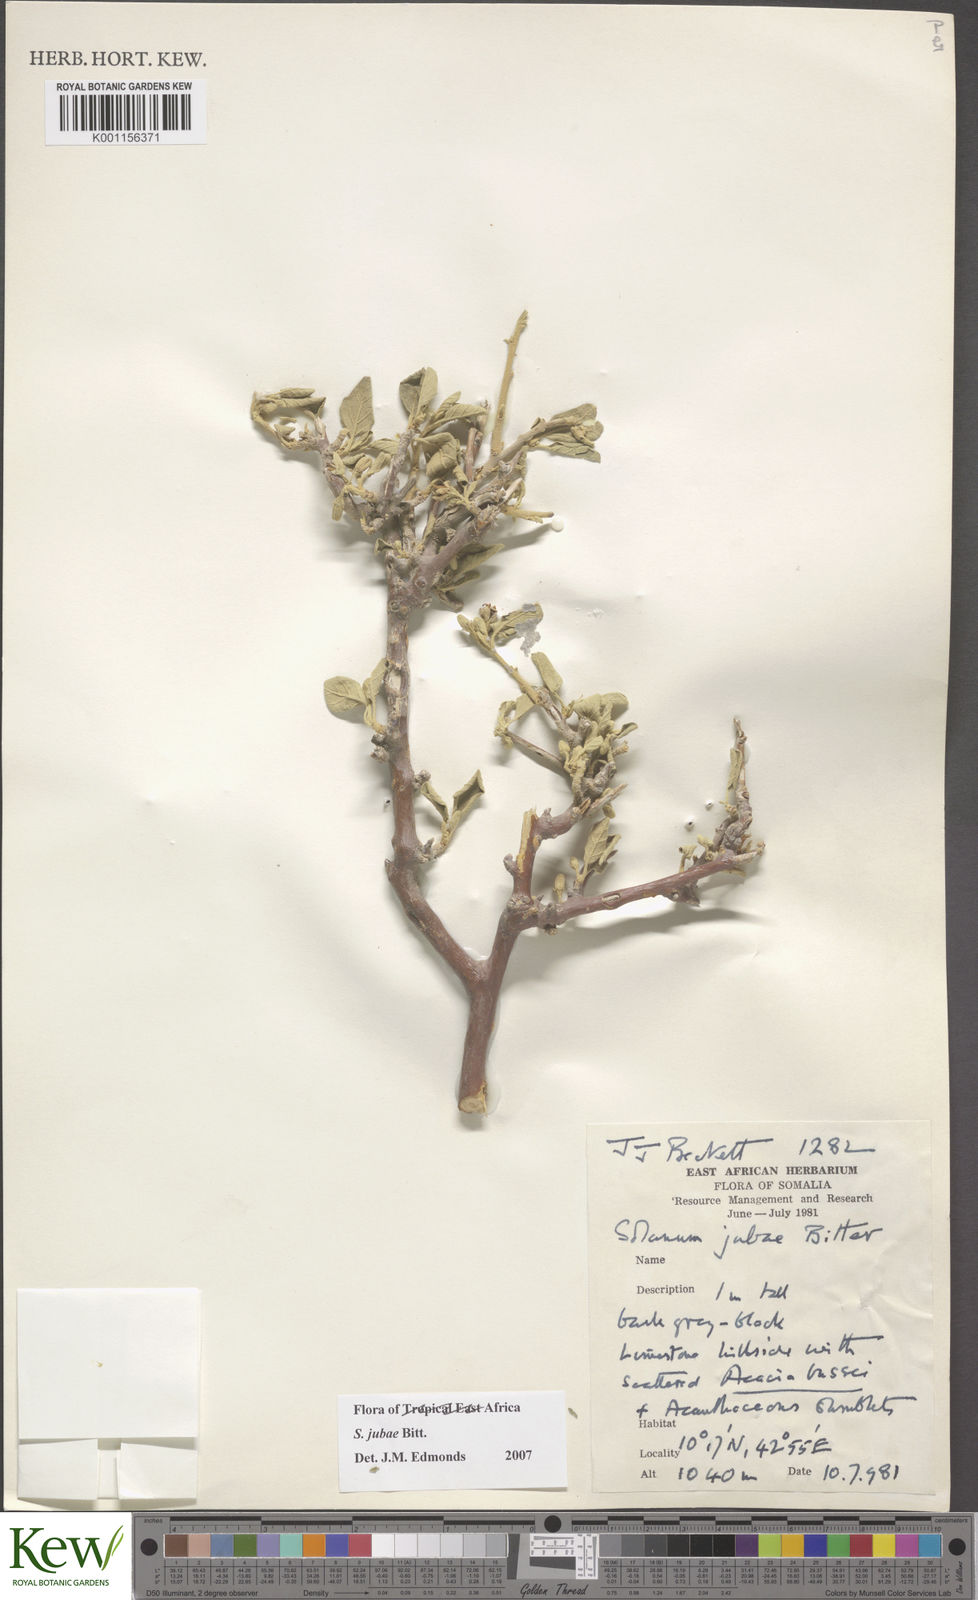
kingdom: Plantae
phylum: Tracheophyta
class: Magnoliopsida
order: Solanales
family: Solanaceae
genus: Solanum
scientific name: Solanum jubae
